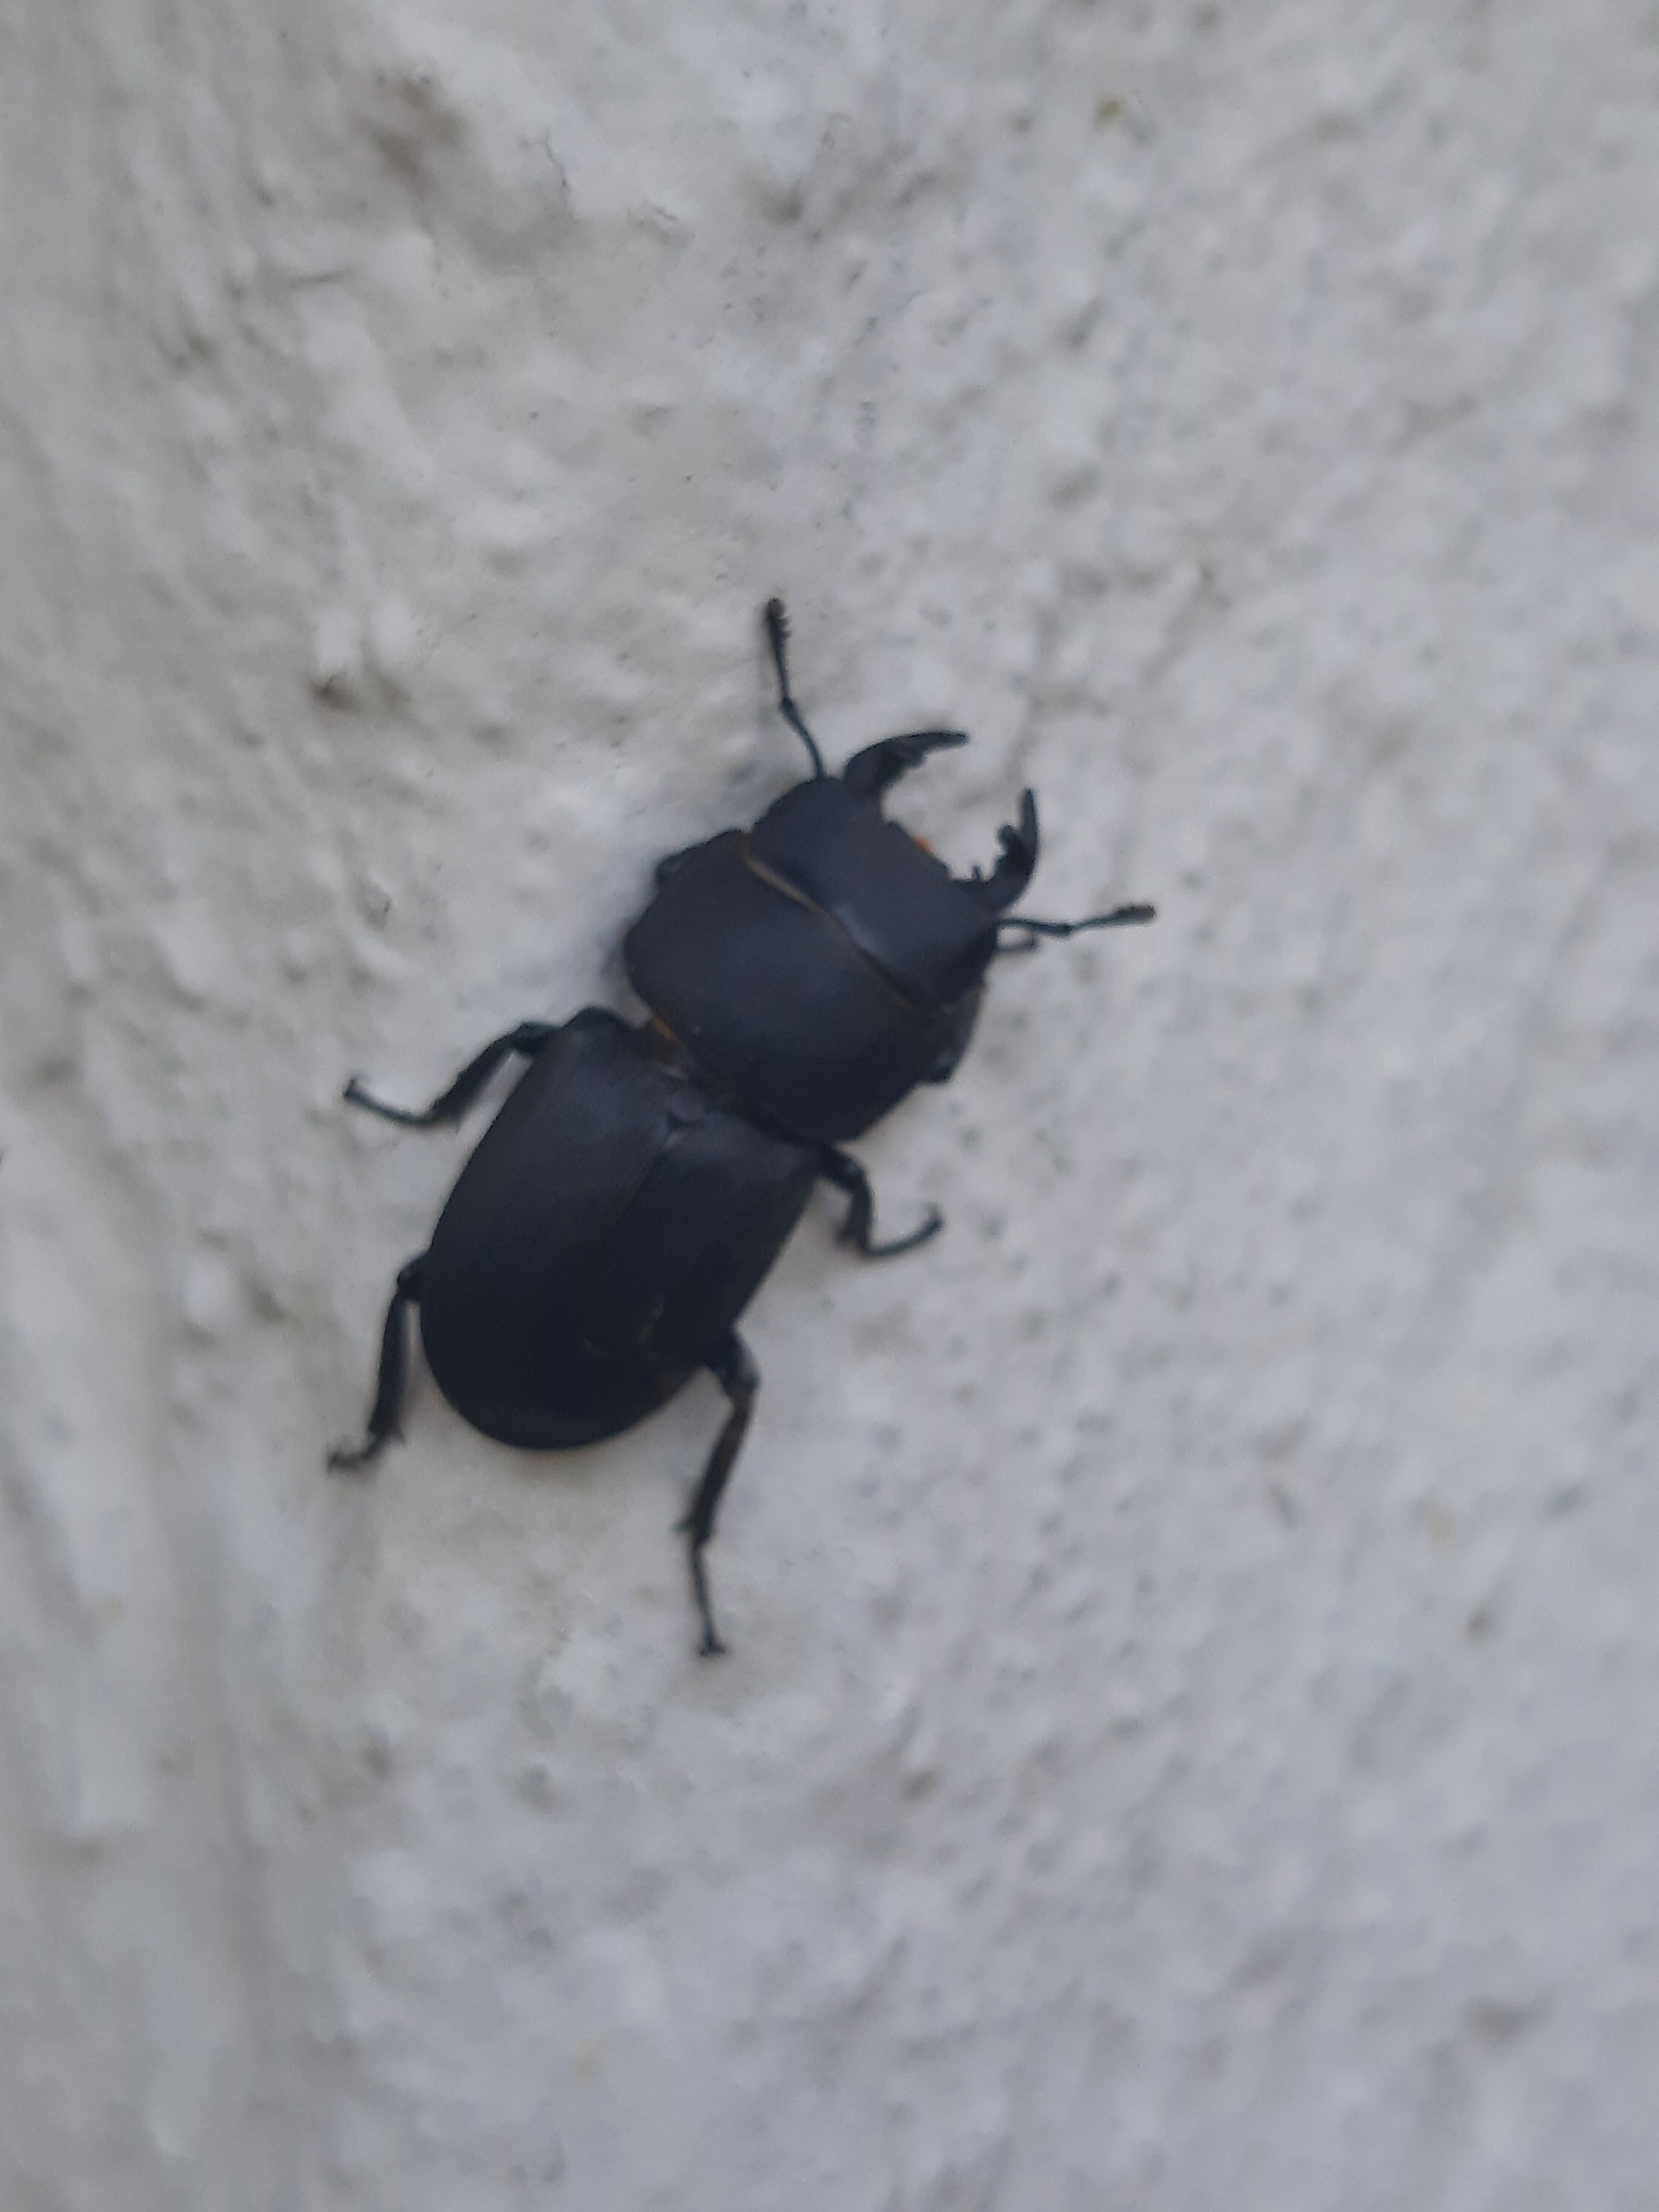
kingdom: Animalia
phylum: Arthropoda
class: Insecta
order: Coleoptera
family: Lucanidae
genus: Dorcus
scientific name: Dorcus parallelipipedus
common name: Bøghjort
